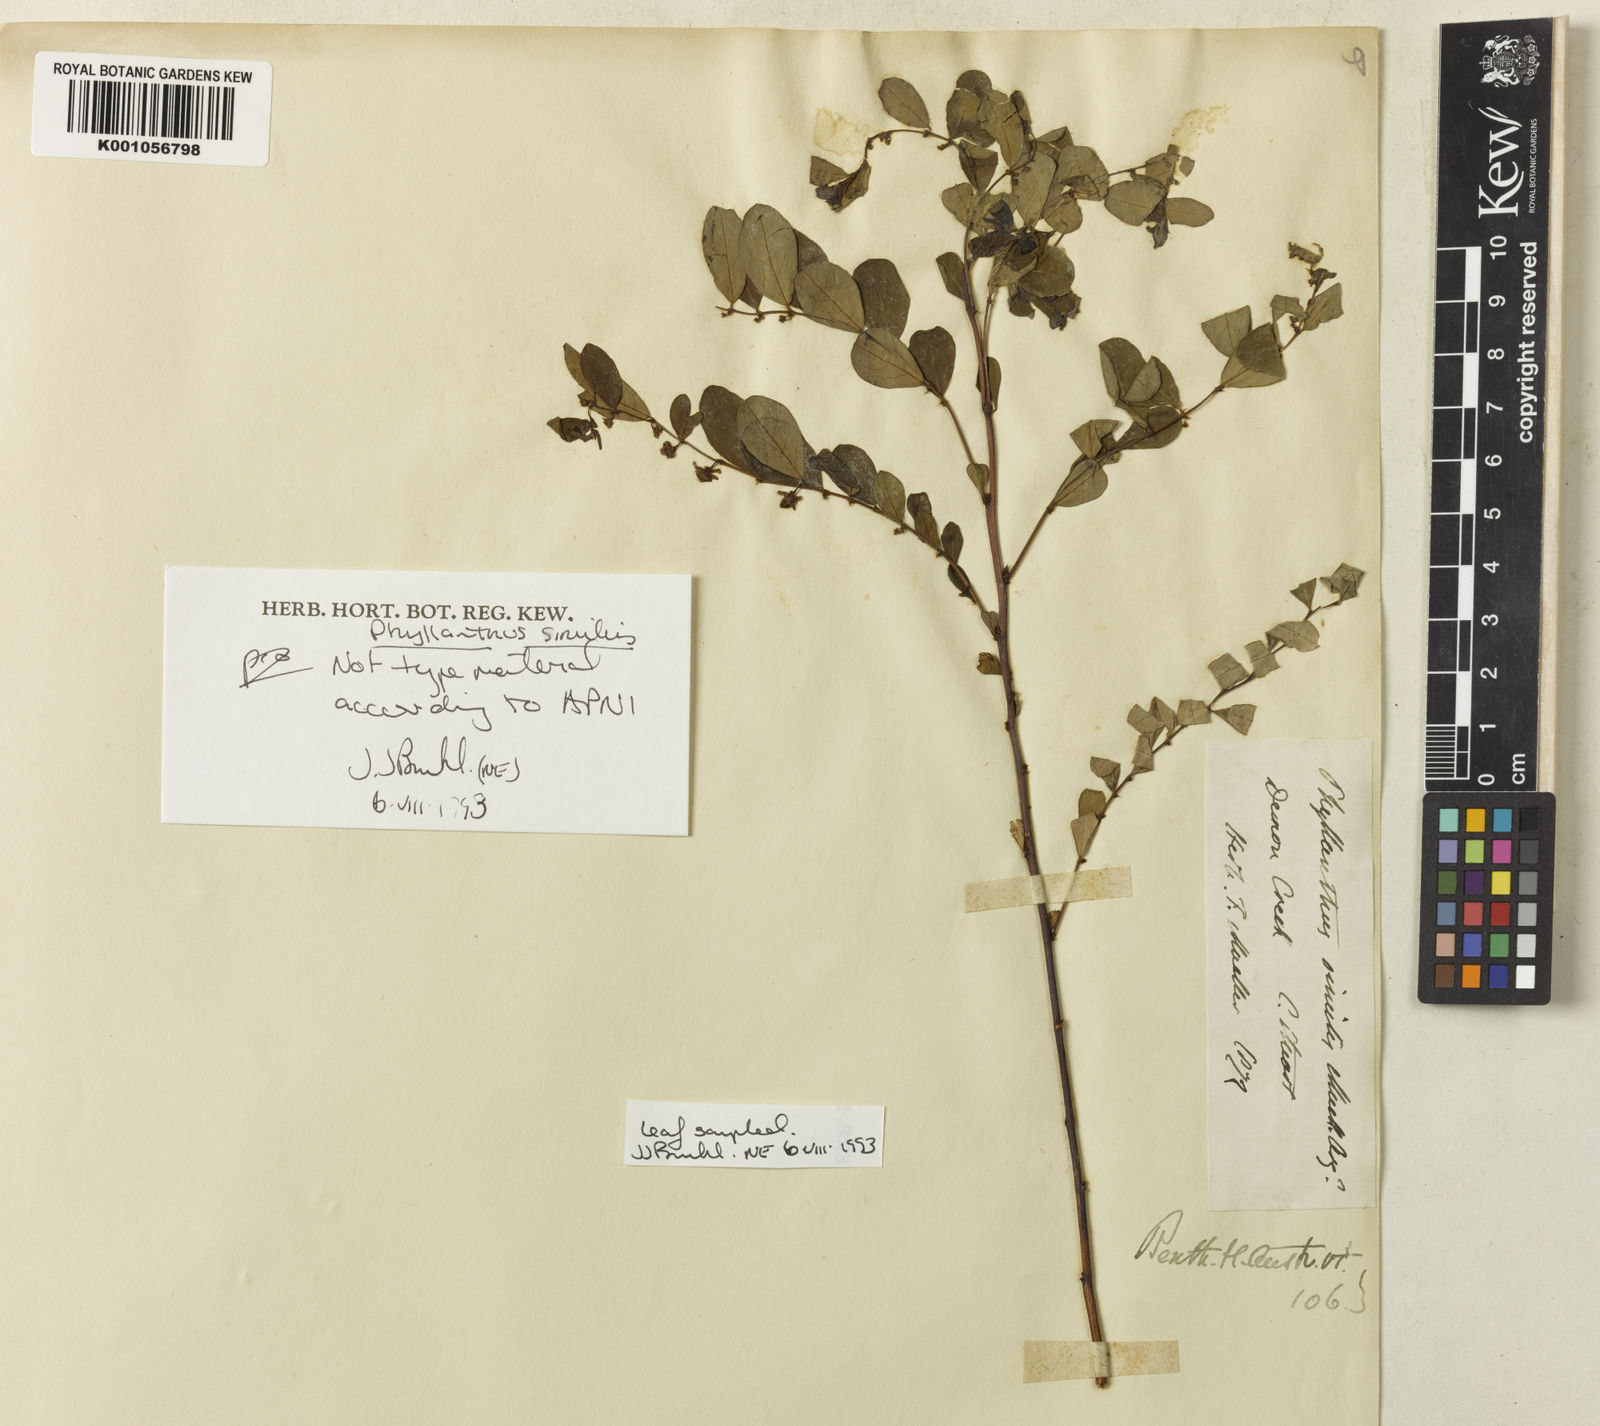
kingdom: Plantae
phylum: Tracheophyta
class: Magnoliopsida
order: Malpighiales
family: Phyllanthaceae
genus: Phyllanthus
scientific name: Phyllanthus
